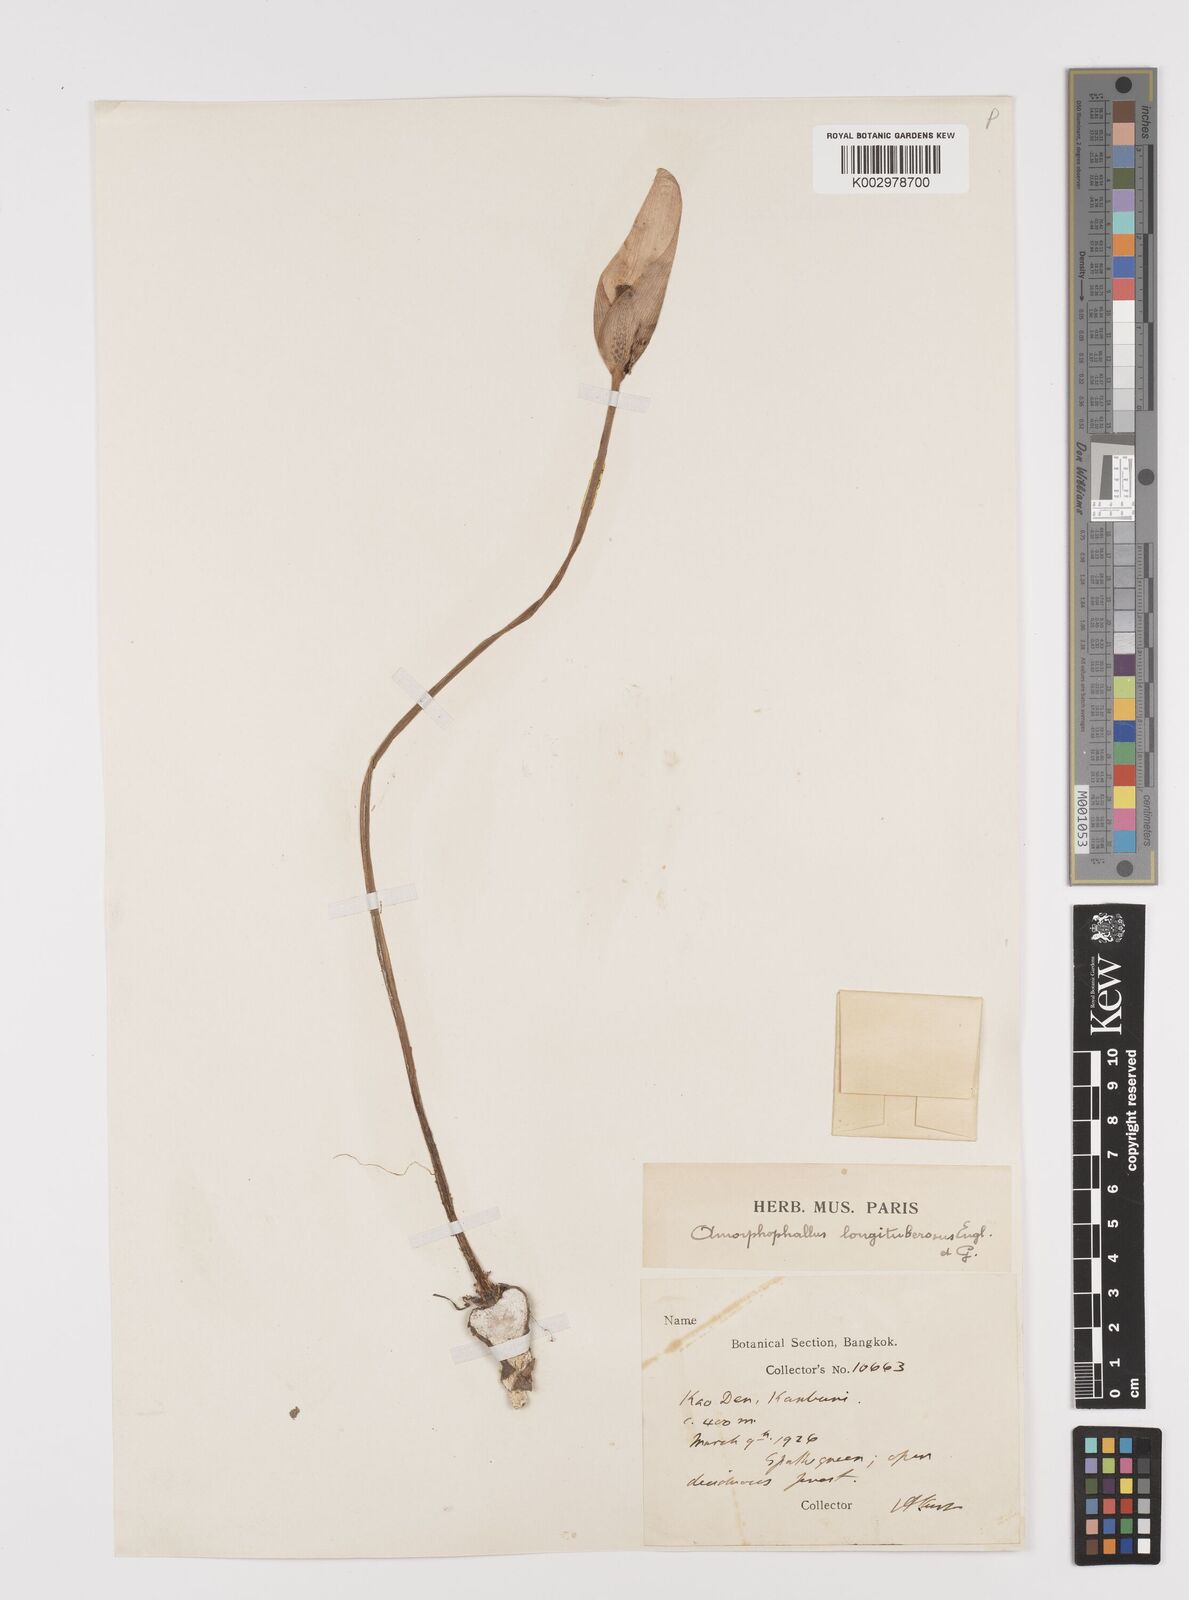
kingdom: Plantae
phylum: Tracheophyta
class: Liliopsida
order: Alismatales
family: Araceae
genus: Amorphophallus
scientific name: Amorphophallus longituberosus
